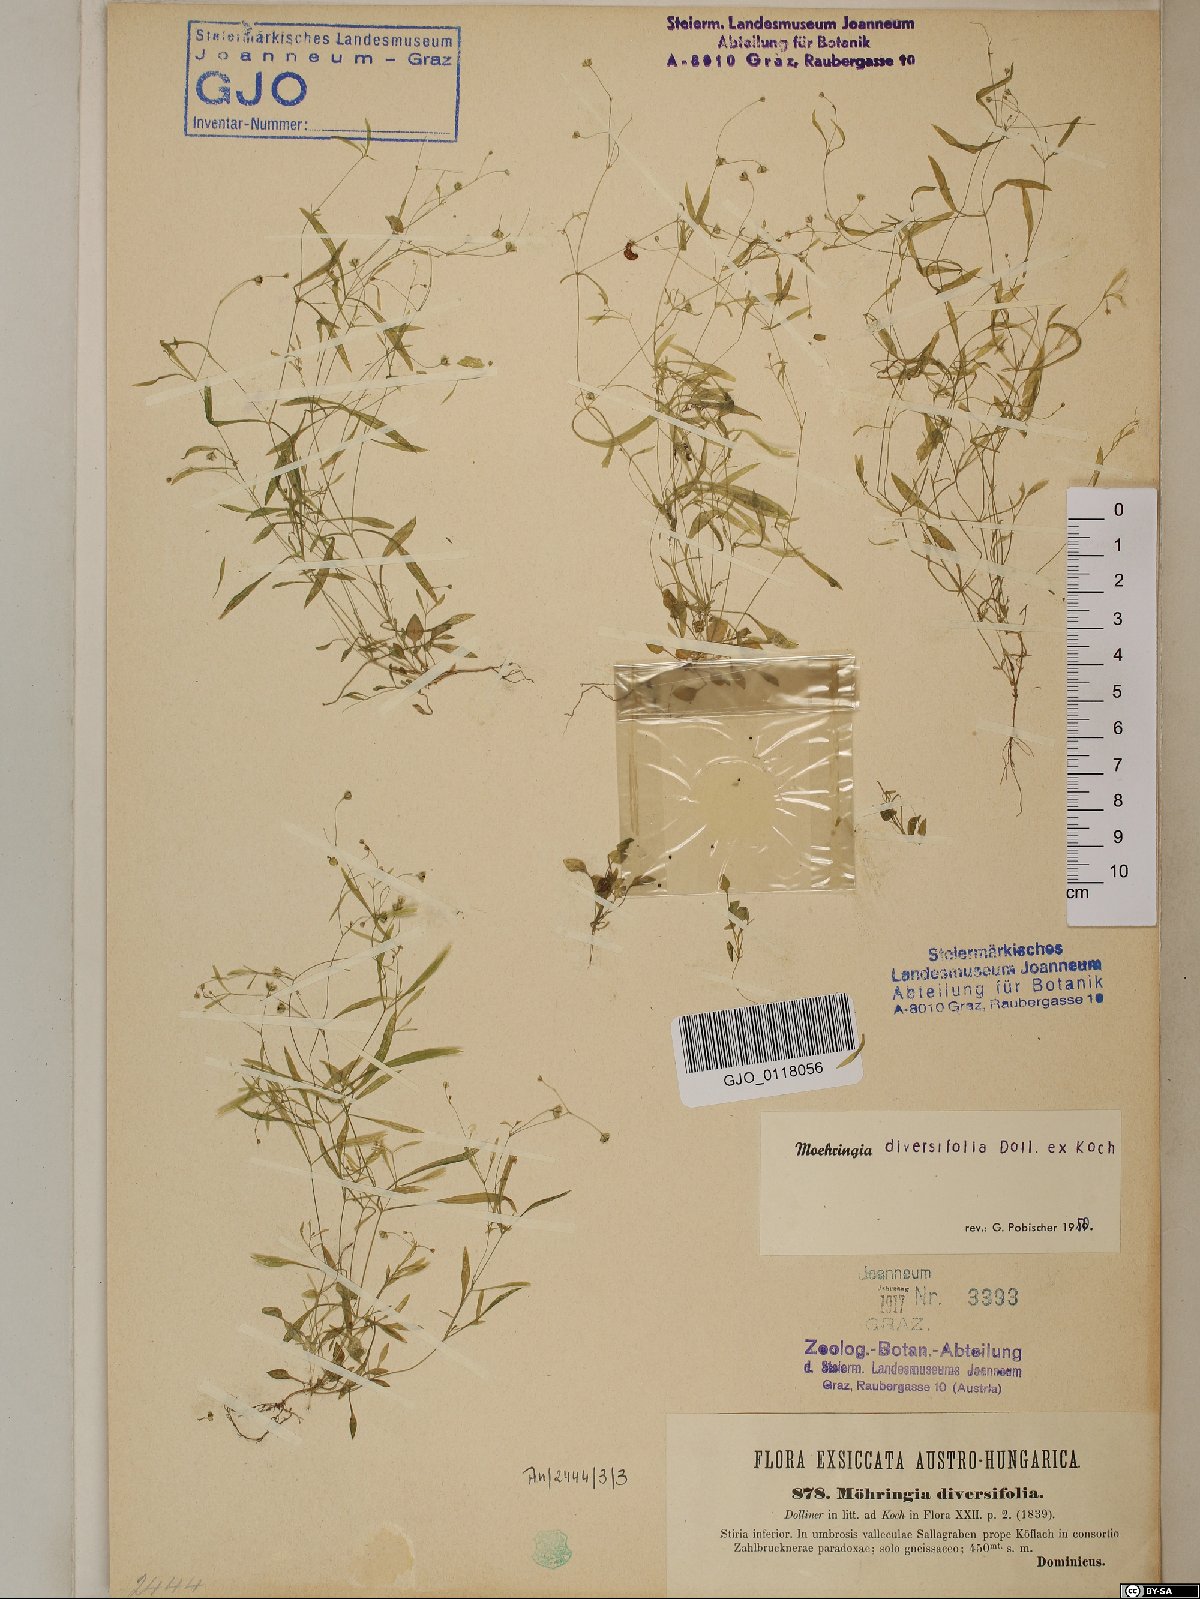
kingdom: Plantae
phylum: Tracheophyta
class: Magnoliopsida
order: Caryophyllales
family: Caryophyllaceae
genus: Moehringia
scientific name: Moehringia diversifolia
